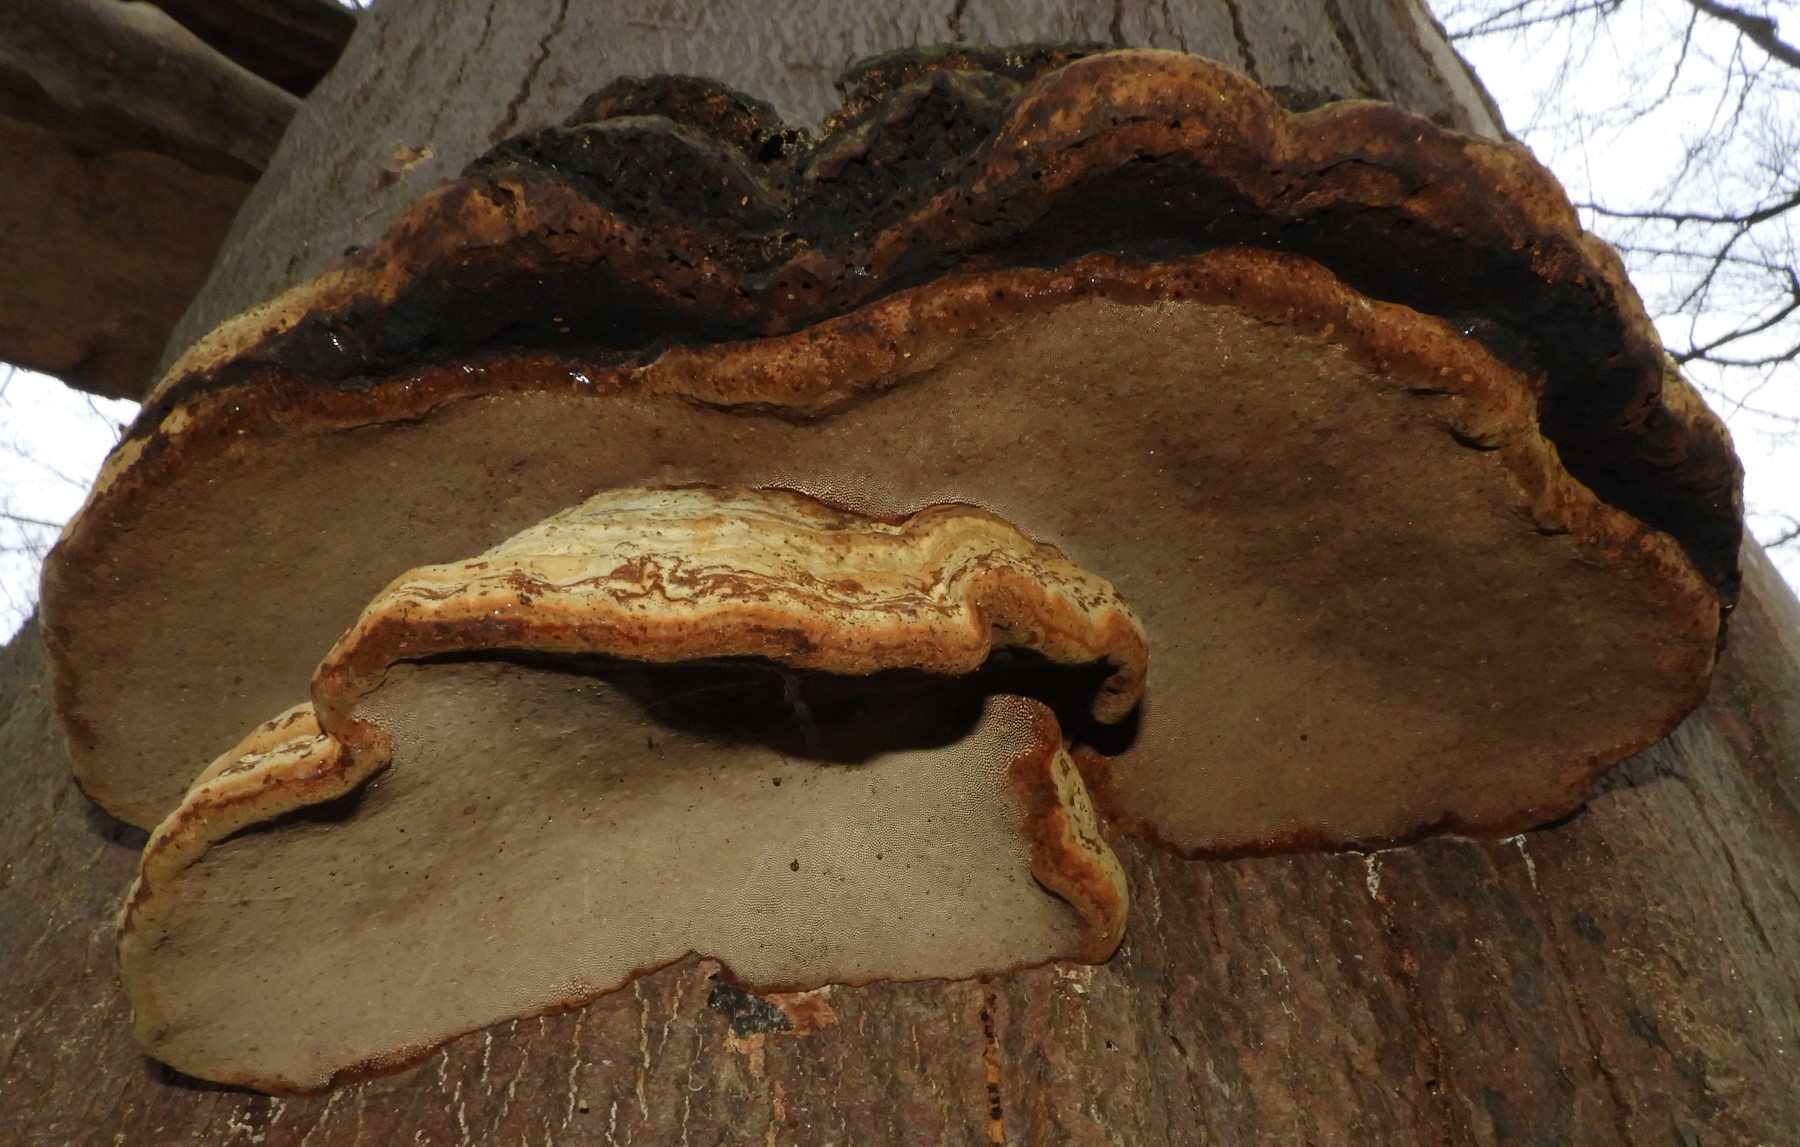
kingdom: Fungi
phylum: Basidiomycota
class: Agaricomycetes
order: Polyporales
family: Polyporaceae
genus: Fomes
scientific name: Fomes fomentarius
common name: tøndersvamp
